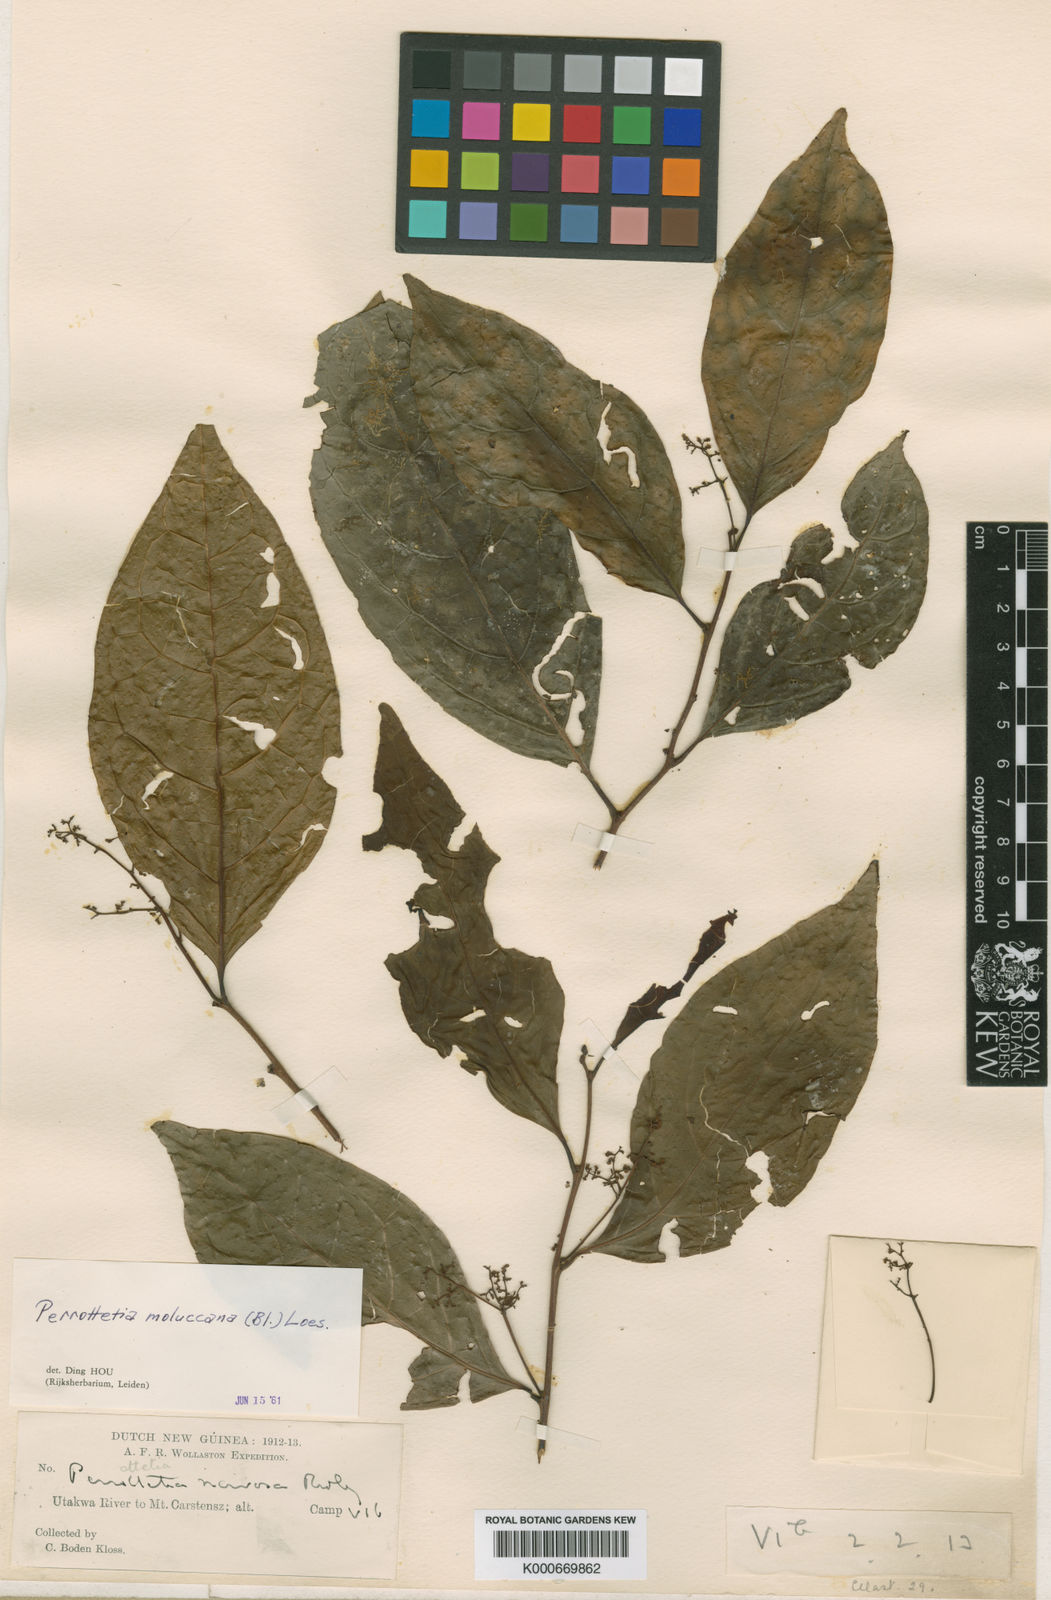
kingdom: Plantae
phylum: Tracheophyta
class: Magnoliopsida
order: Huerteales
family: Dipentodontaceae
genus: Perrottetia
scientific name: Perrottetia alpestris
